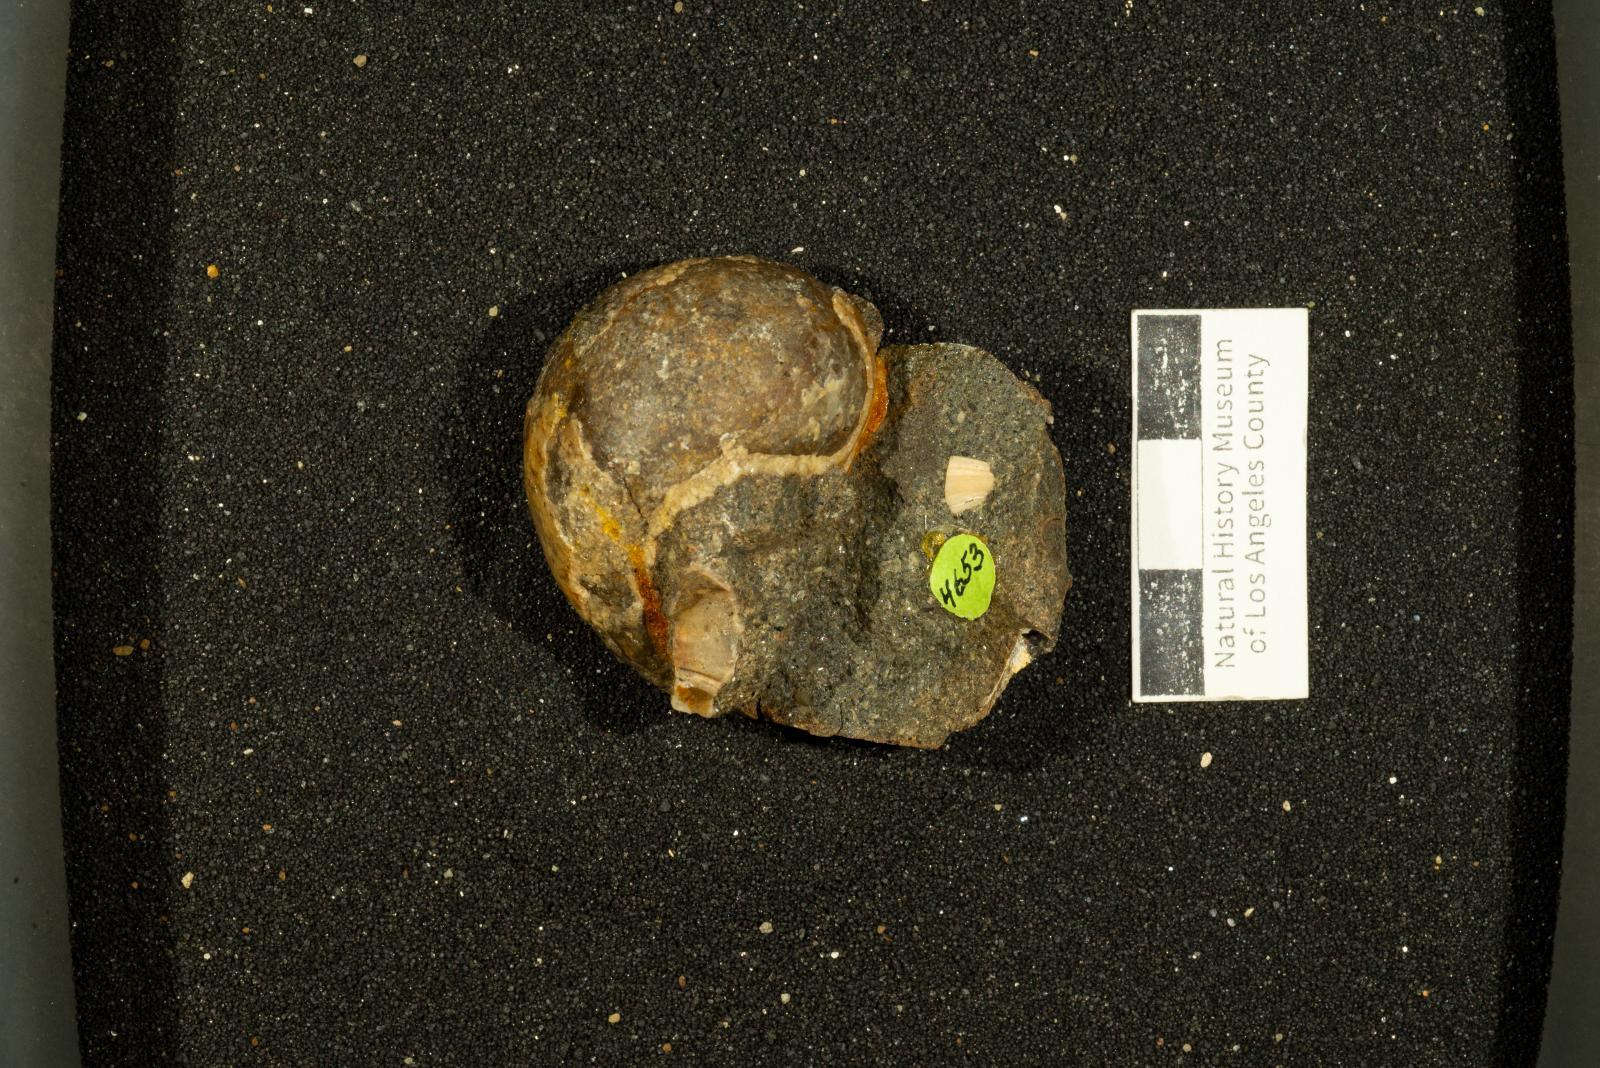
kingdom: Animalia
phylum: Mollusca
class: Gastropoda
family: Gyrodidae
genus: Gyrodes
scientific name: Gyrodes dowelli
